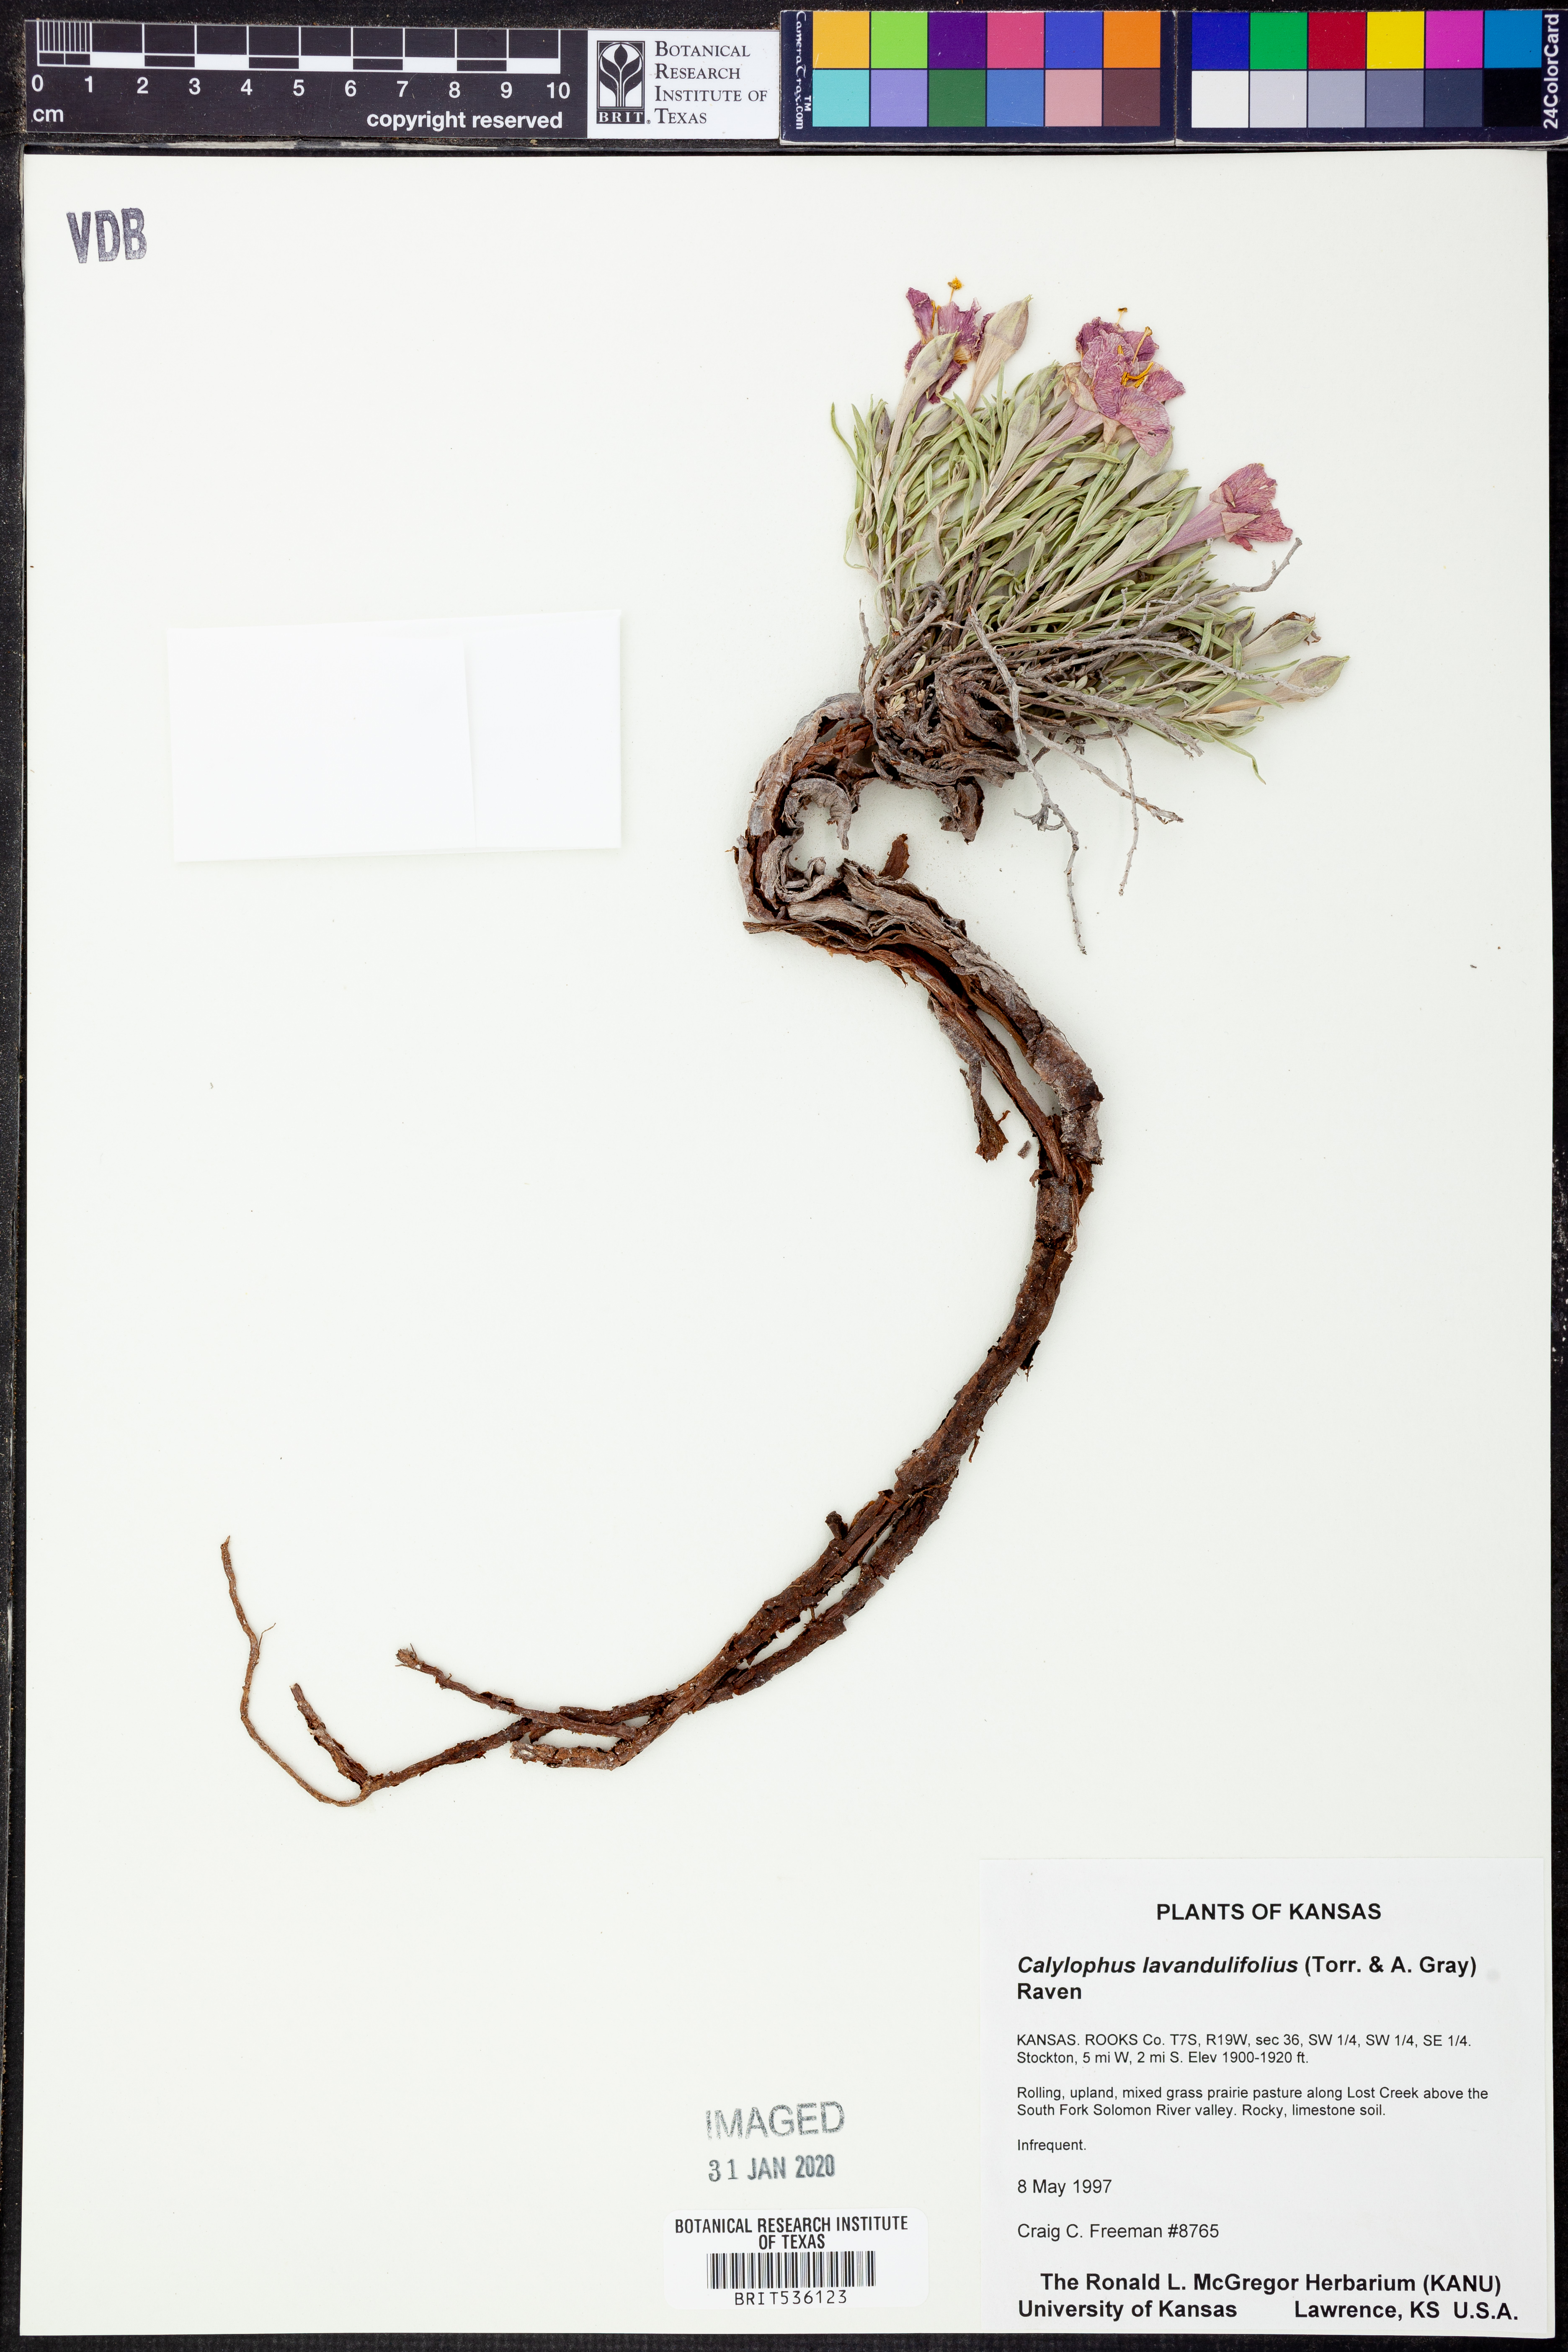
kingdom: Plantae
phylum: Tracheophyta
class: Magnoliopsida
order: Myrtales
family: Onagraceae
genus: Oenothera
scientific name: Oenothera lavandulifolia
